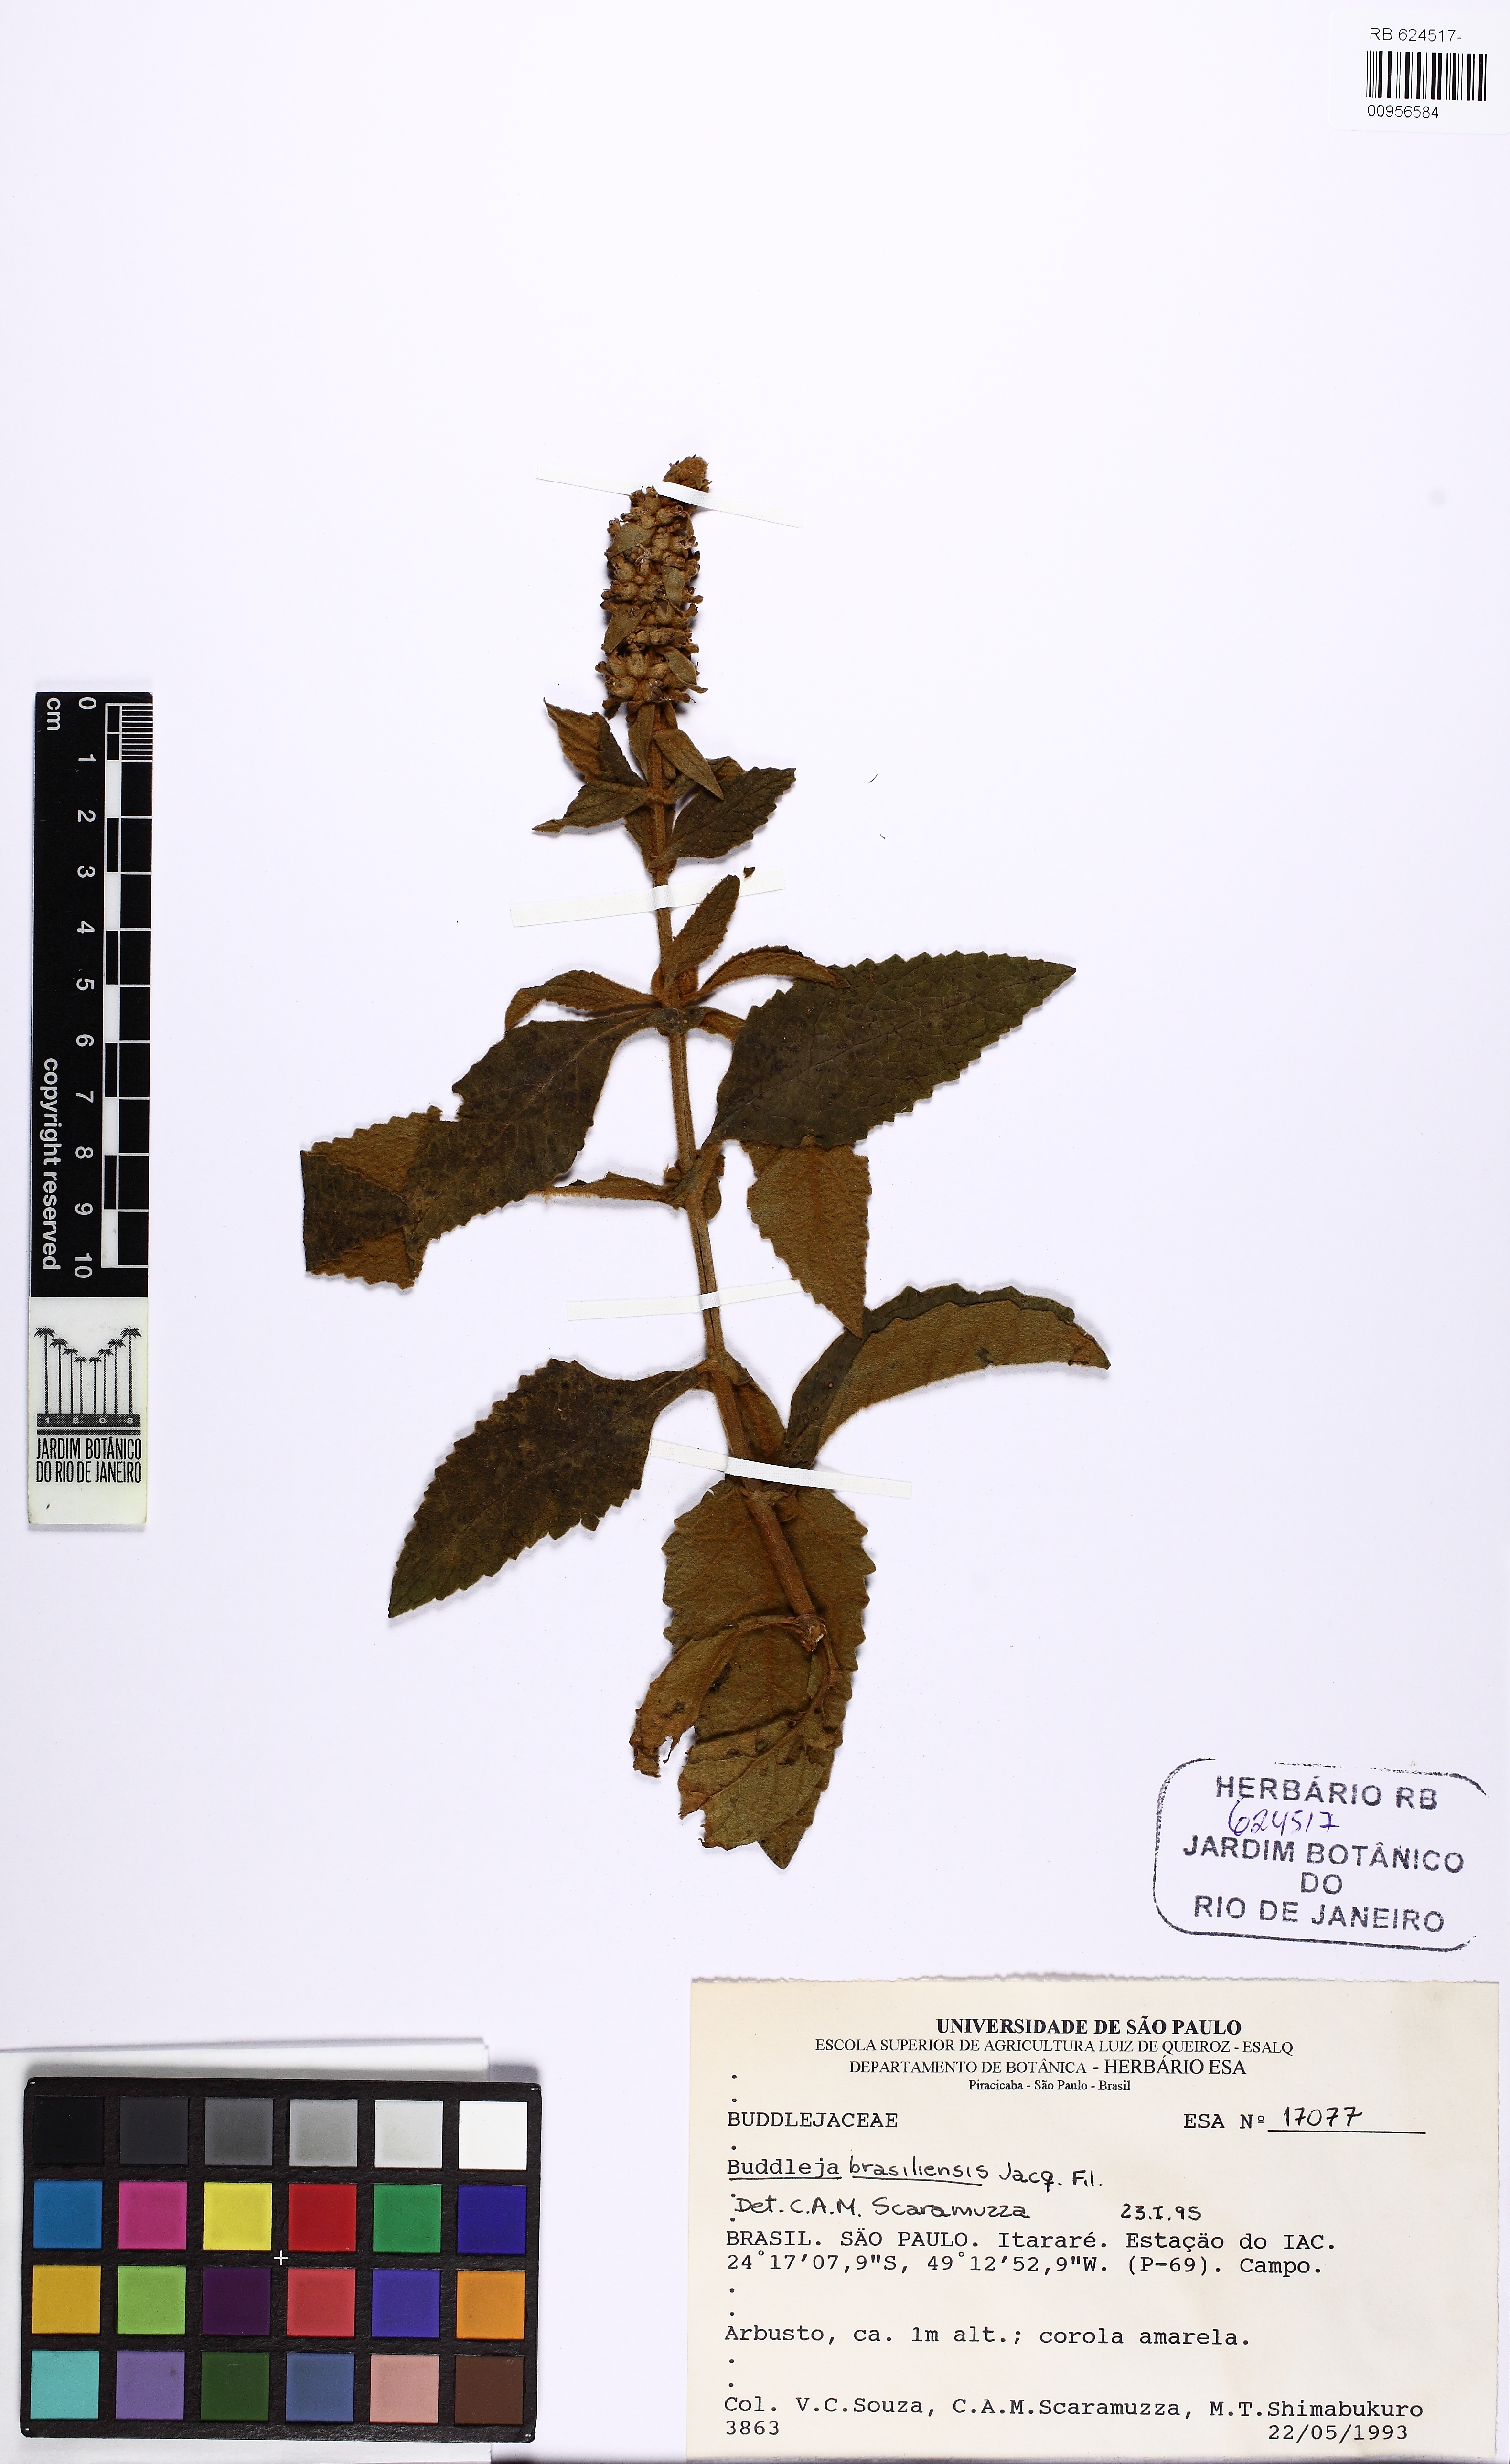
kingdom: Plantae
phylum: Tracheophyta
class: Magnoliopsida
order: Lamiales
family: Scrophulariaceae
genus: Buddleja
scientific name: Buddleja stachyoides
